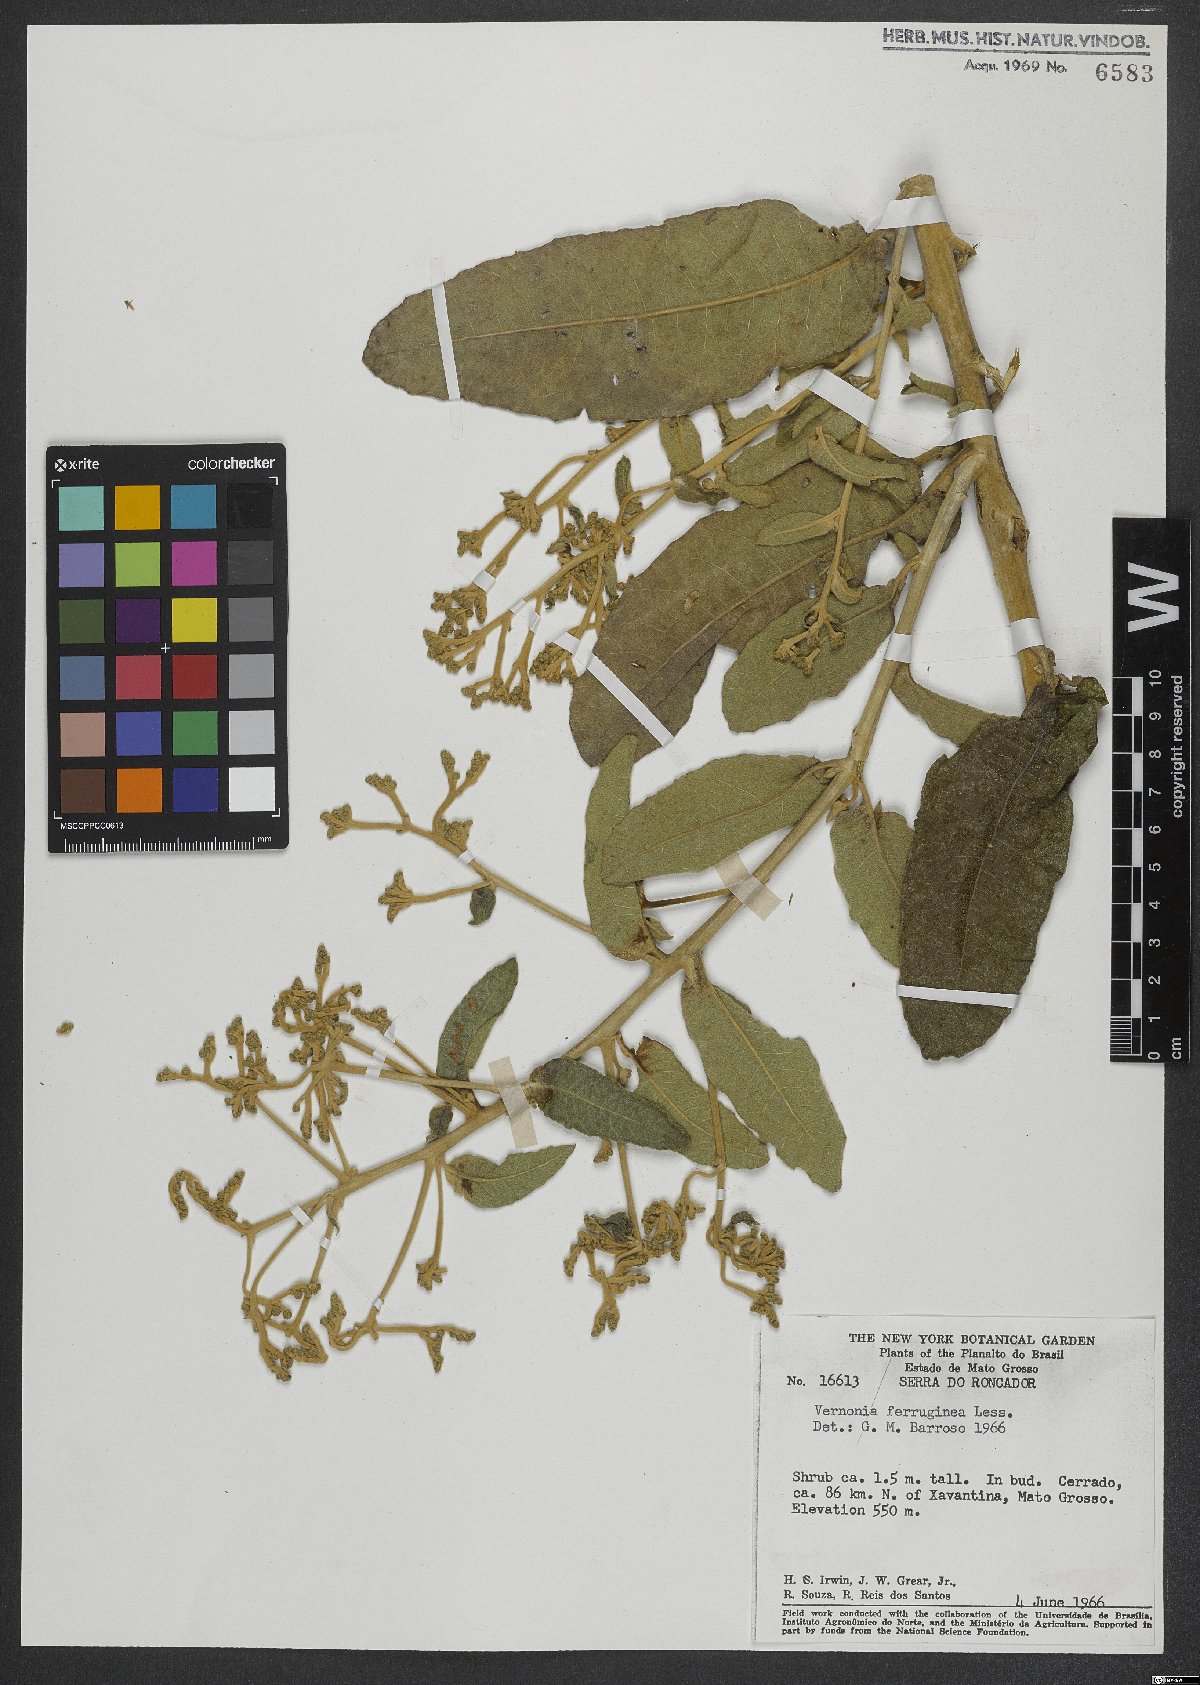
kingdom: Plantae
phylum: Tracheophyta
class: Magnoliopsida
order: Asterales
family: Asteraceae
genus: Vernonanthura
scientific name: Vernonanthura ferruginea
